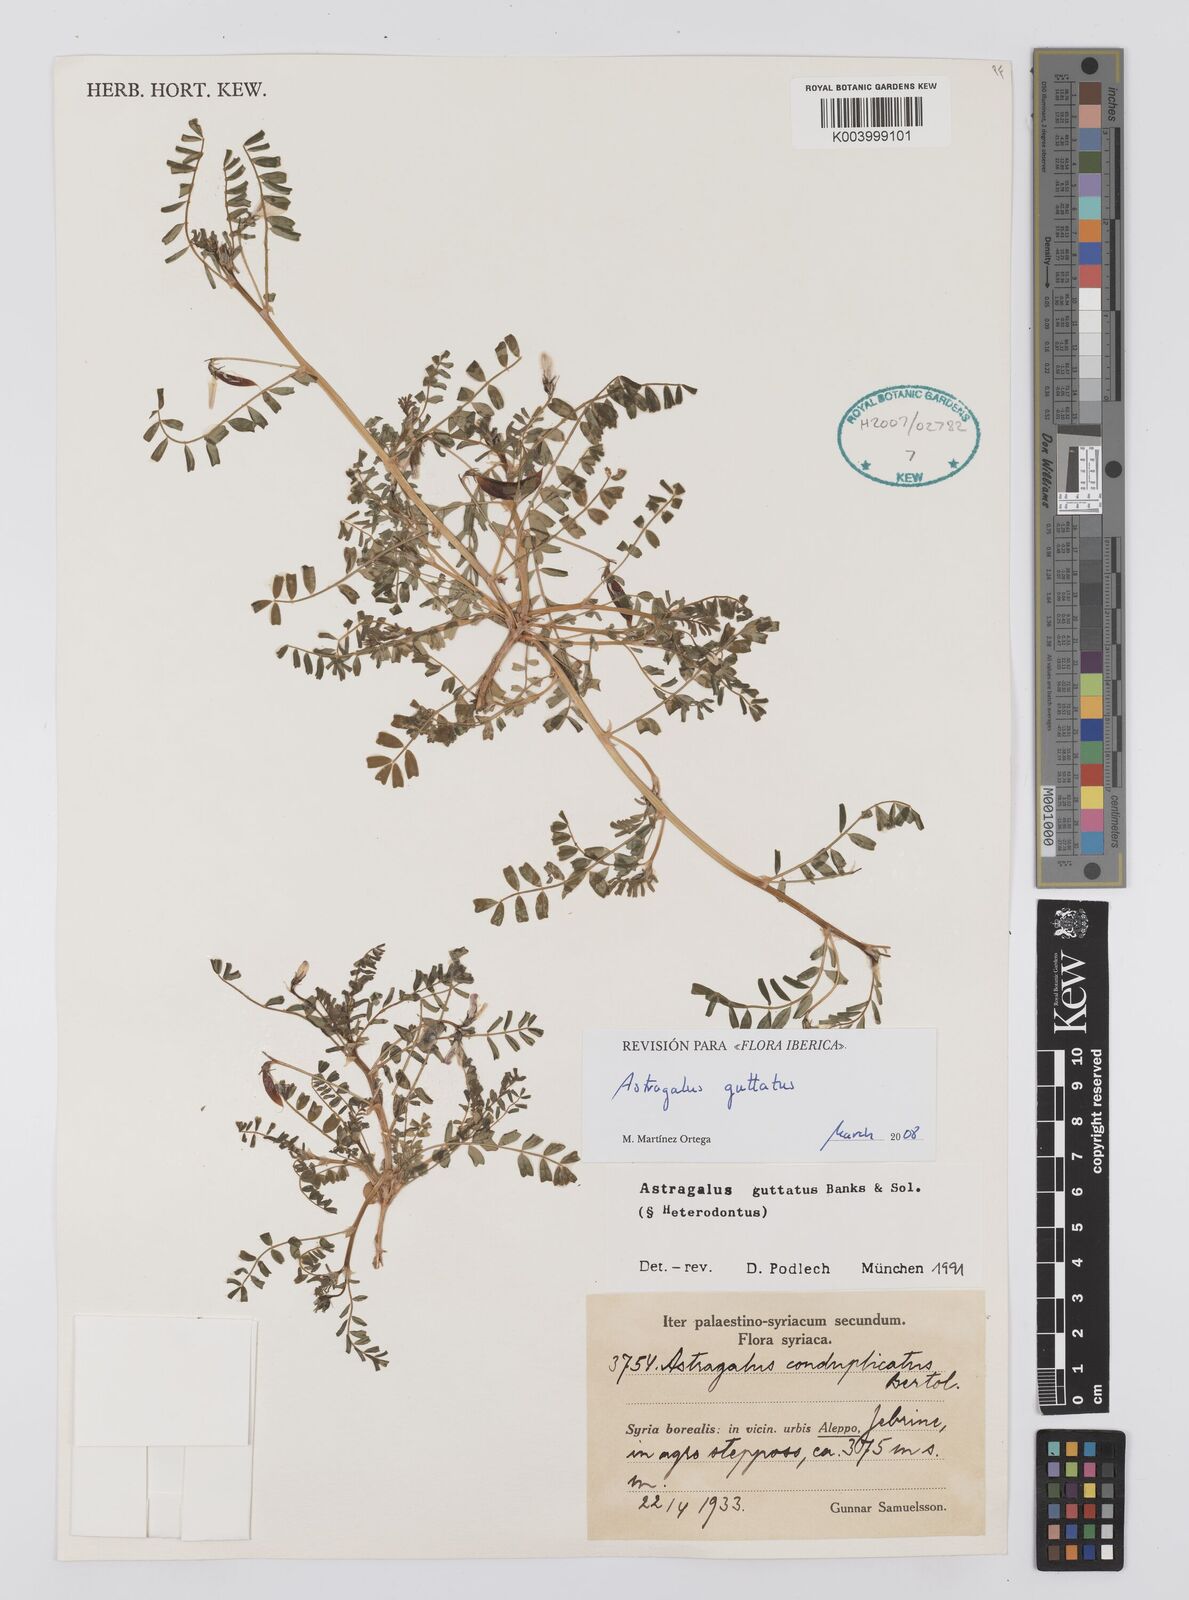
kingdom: Plantae
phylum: Tracheophyta
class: Magnoliopsida
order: Fabales
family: Fabaceae
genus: Astragalus
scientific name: Astragalus guttatus
